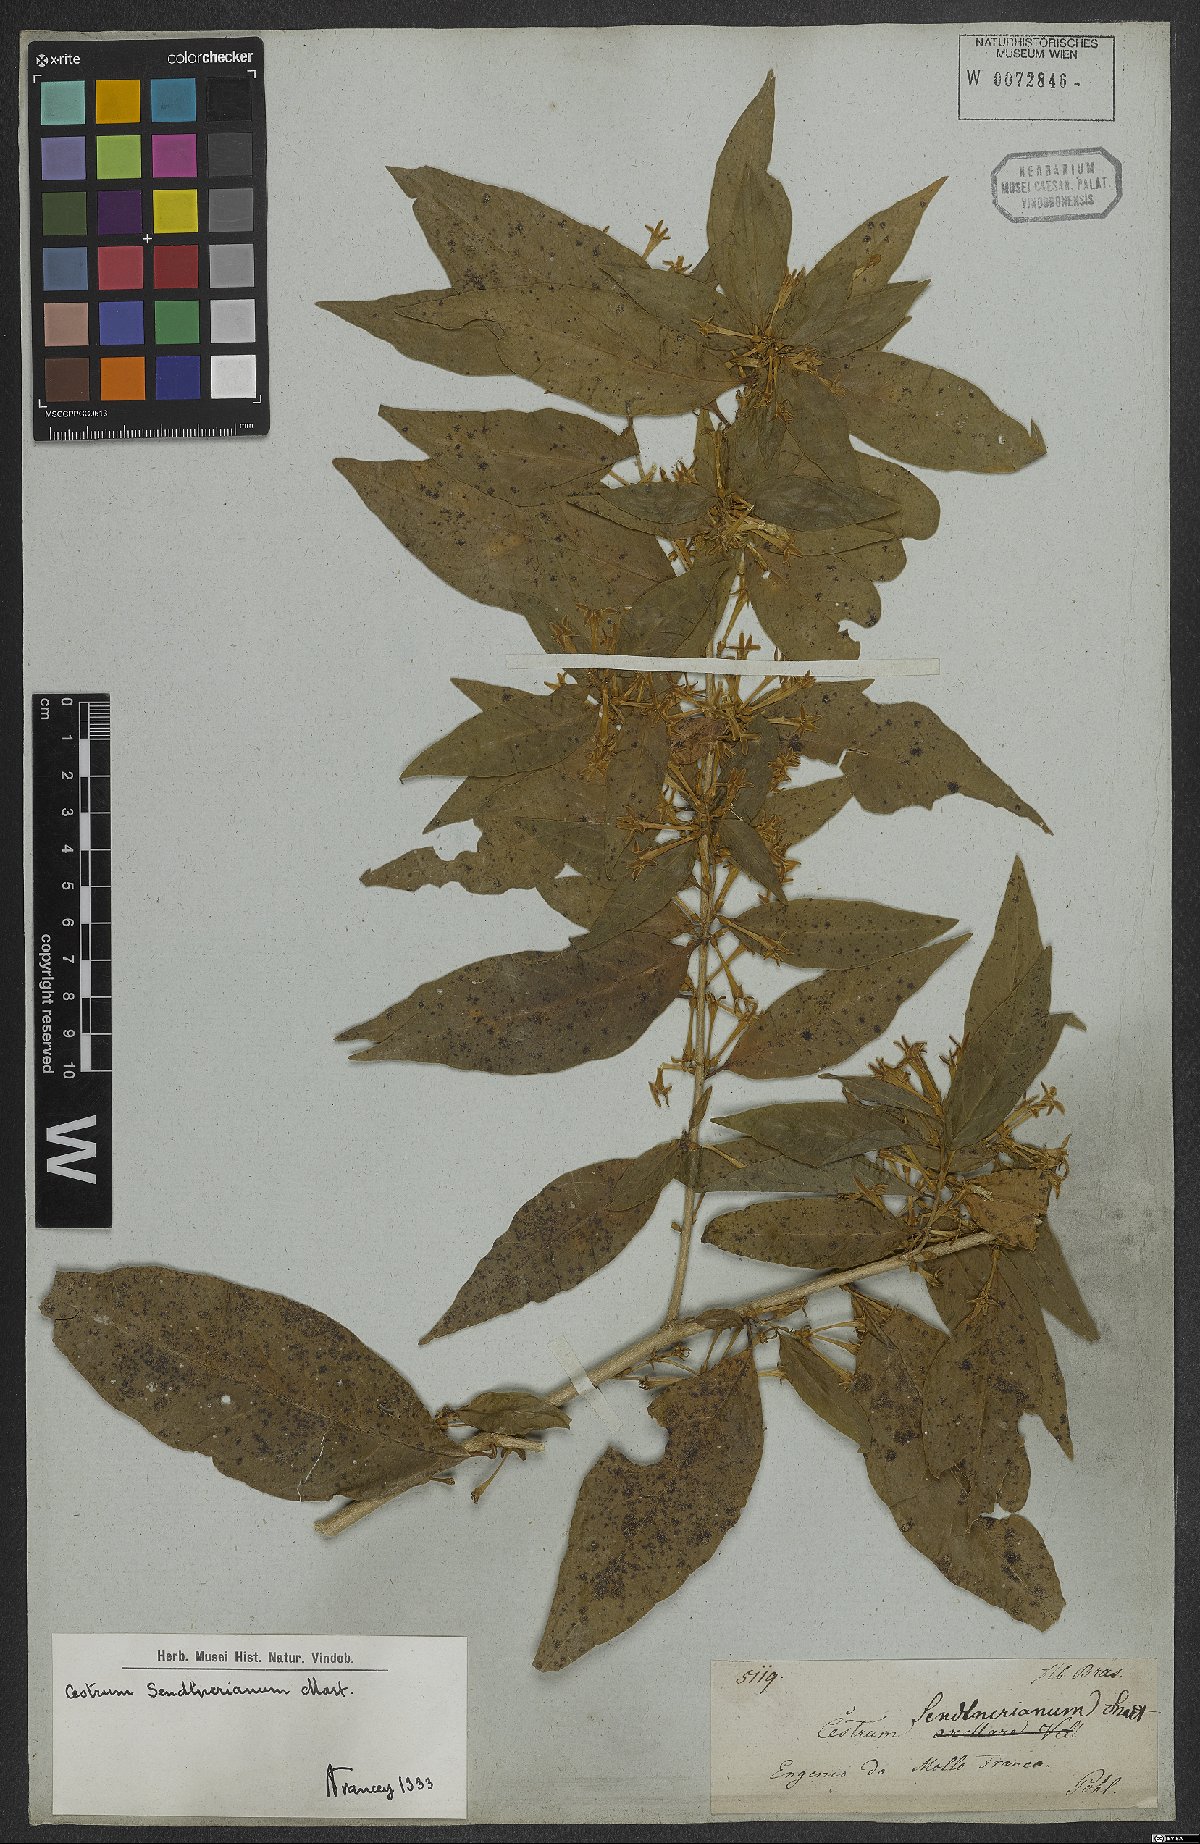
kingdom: Plantae
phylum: Tracheophyta
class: Magnoliopsida
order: Solanales
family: Solanaceae
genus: Cestrum
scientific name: Cestrum mariquitense
